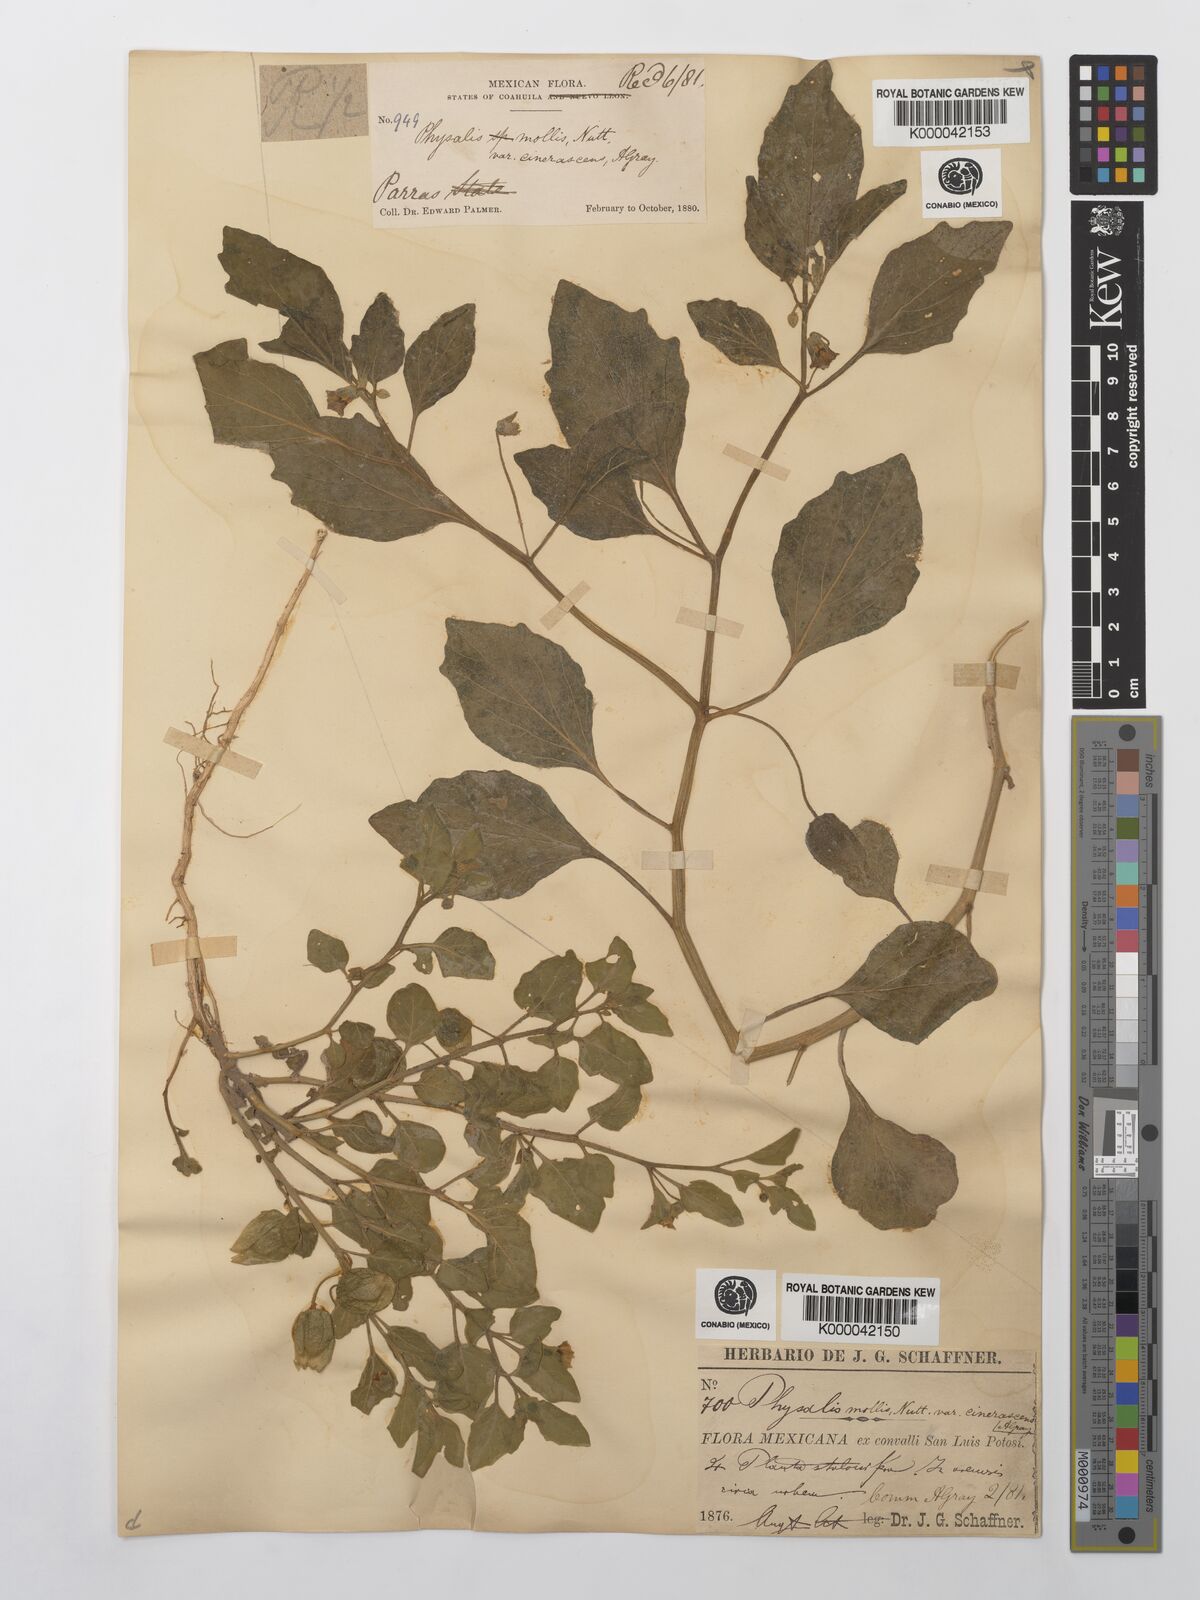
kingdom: Plantae
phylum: Tracheophyta
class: Magnoliopsida
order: Solanales
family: Solanaceae
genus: Physalis
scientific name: Physalis cinerascens
